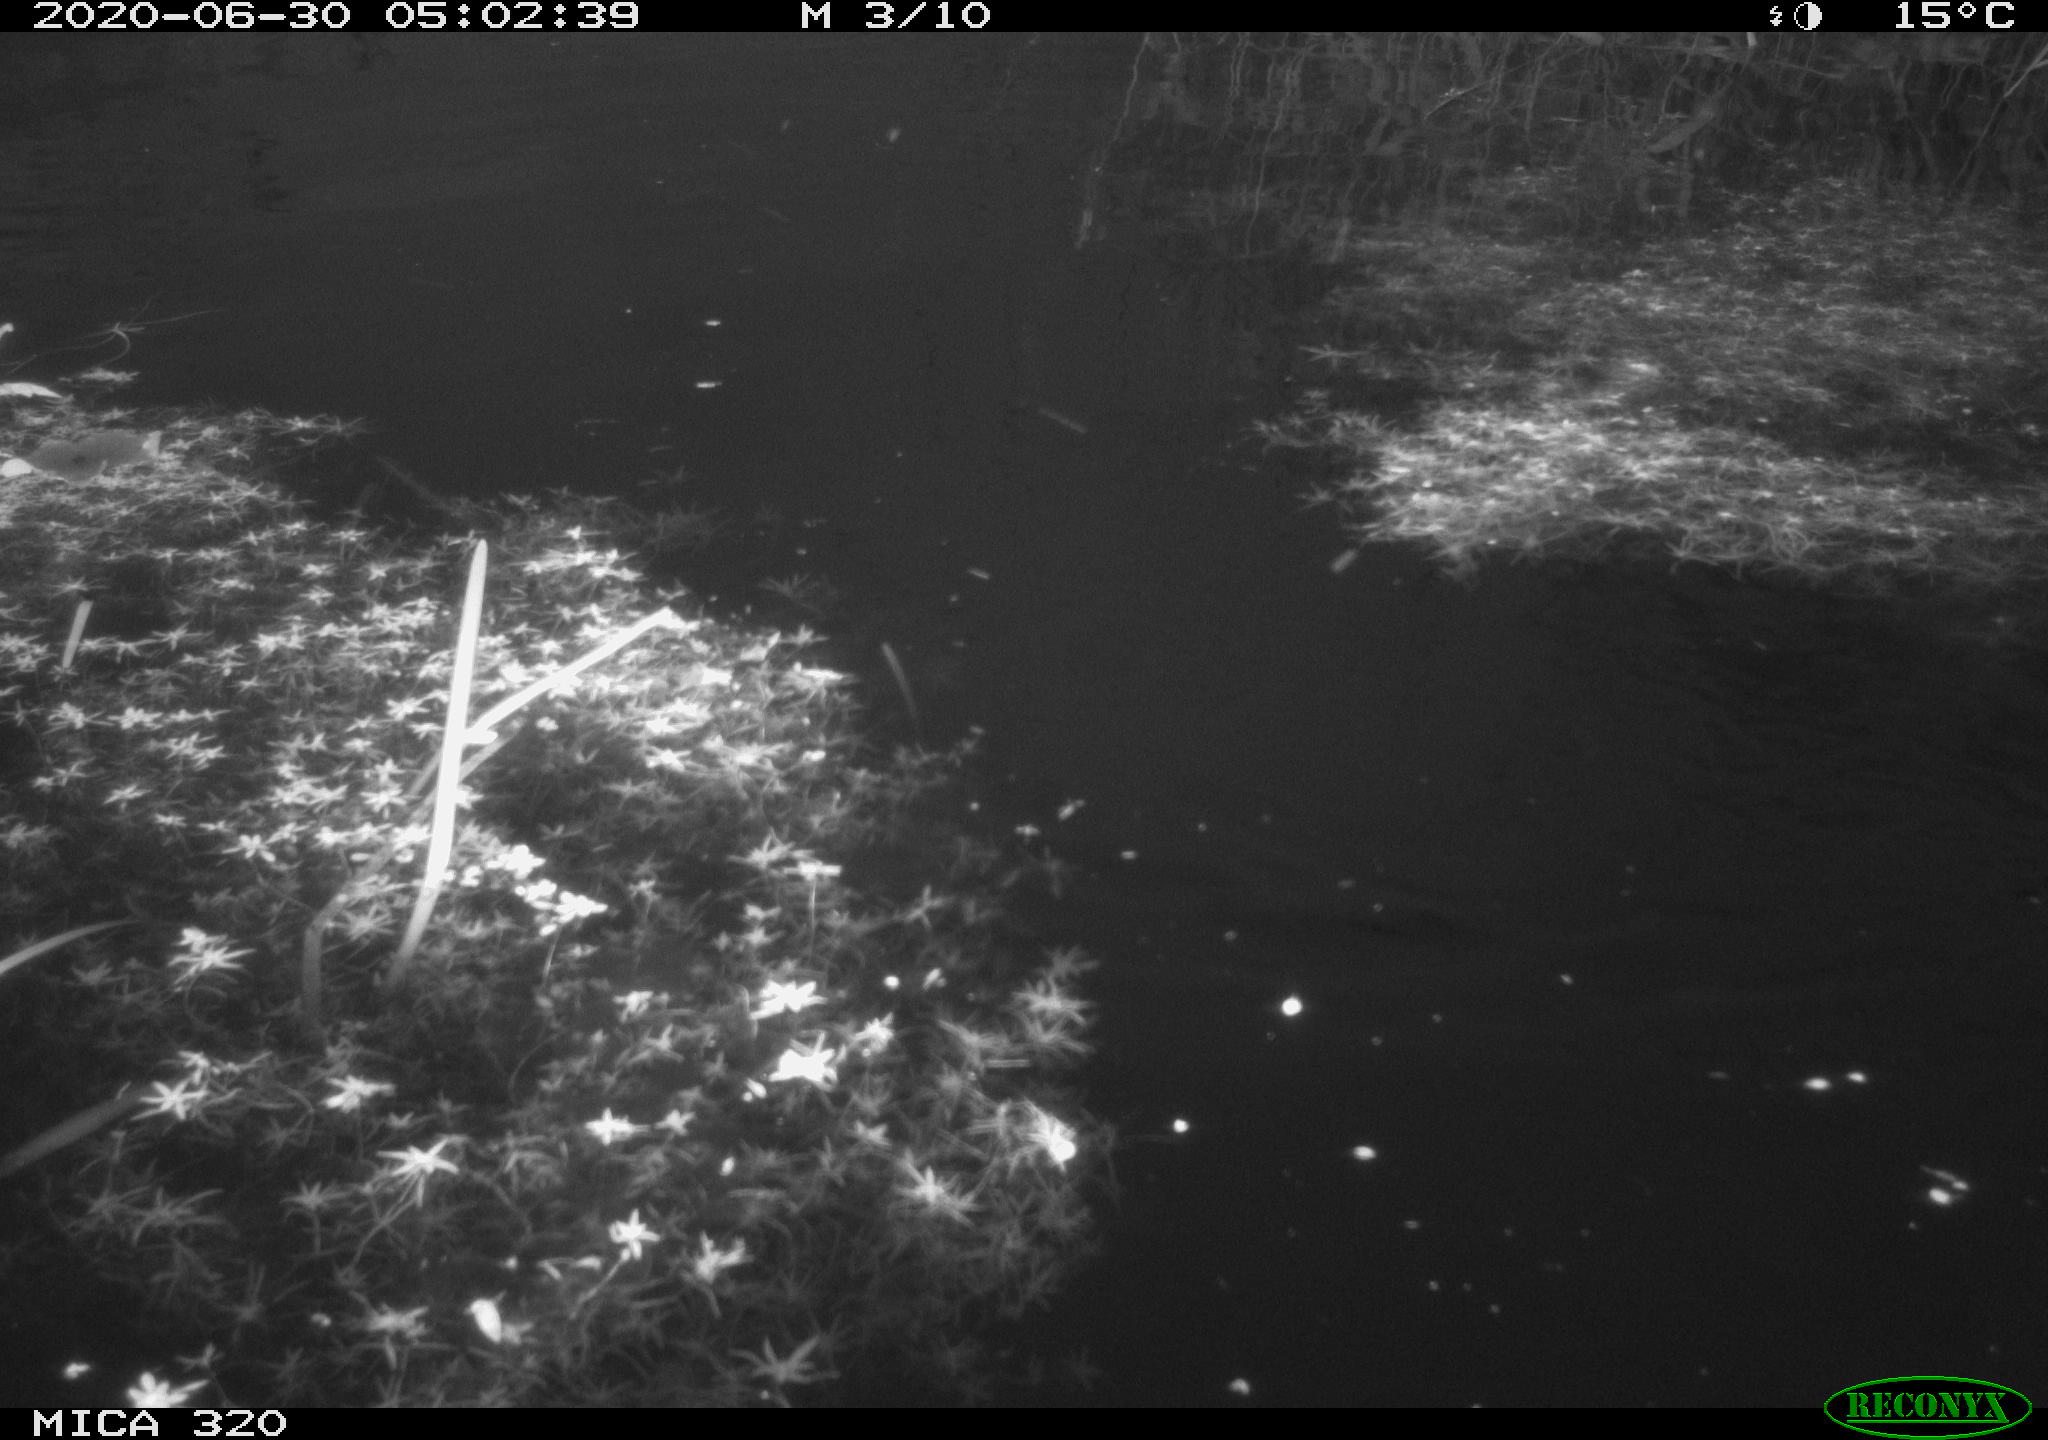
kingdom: Animalia
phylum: Chordata
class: Aves
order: Anseriformes
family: Anatidae
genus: Anas
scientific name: Anas platyrhynchos
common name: Mallard
